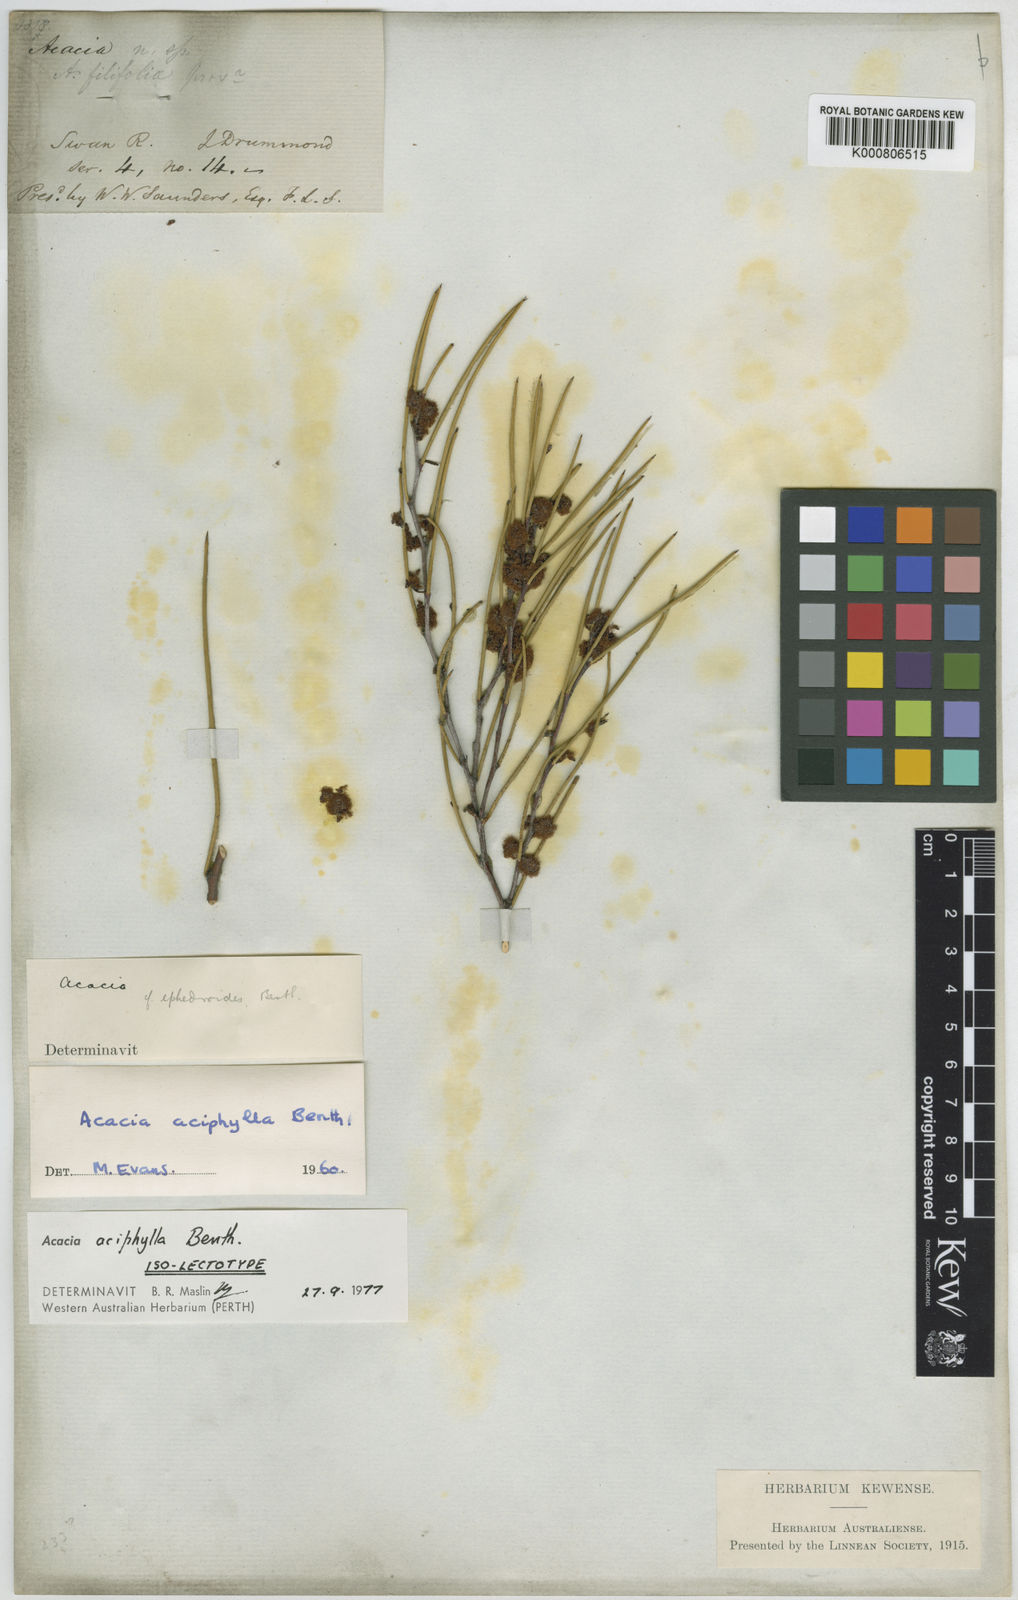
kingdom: Plantae
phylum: Tracheophyta
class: Magnoliopsida
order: Fabales
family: Fabaceae
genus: Acacia
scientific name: Acacia aciphylla
